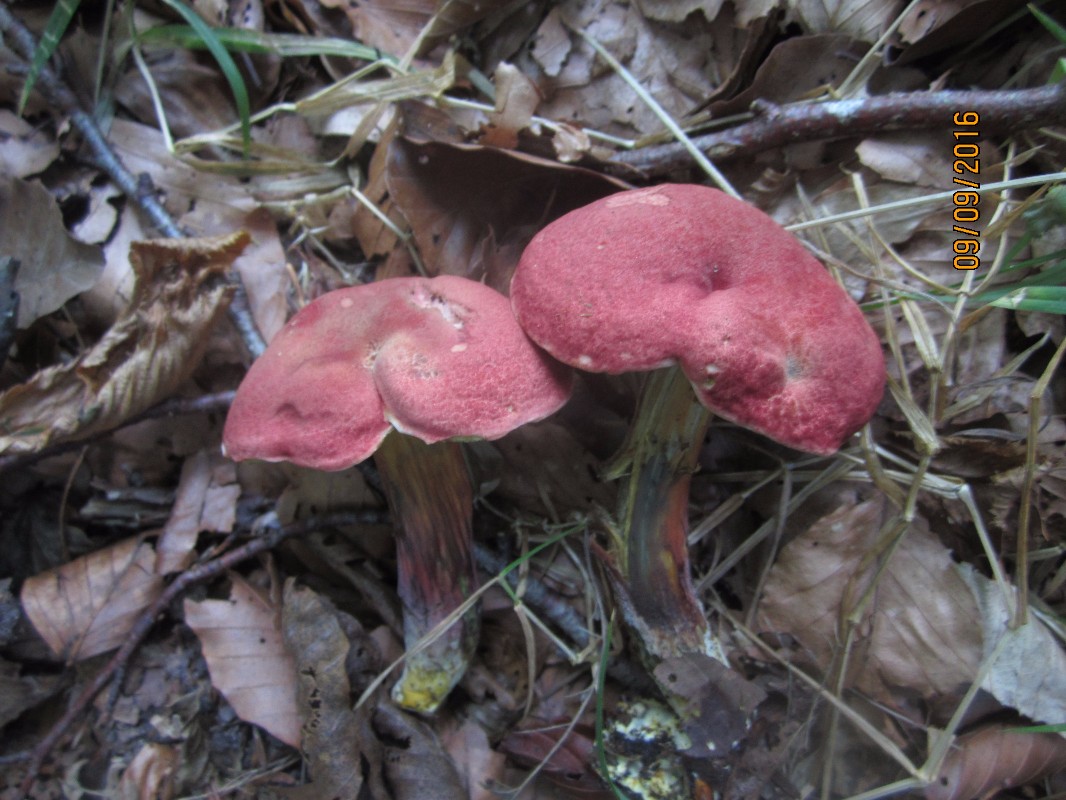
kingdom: Fungi
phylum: Basidiomycota
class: Agaricomycetes
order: Boletales
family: Boletaceae
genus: Hortiboletus
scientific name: Hortiboletus rubellus
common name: blodrød rørhat
